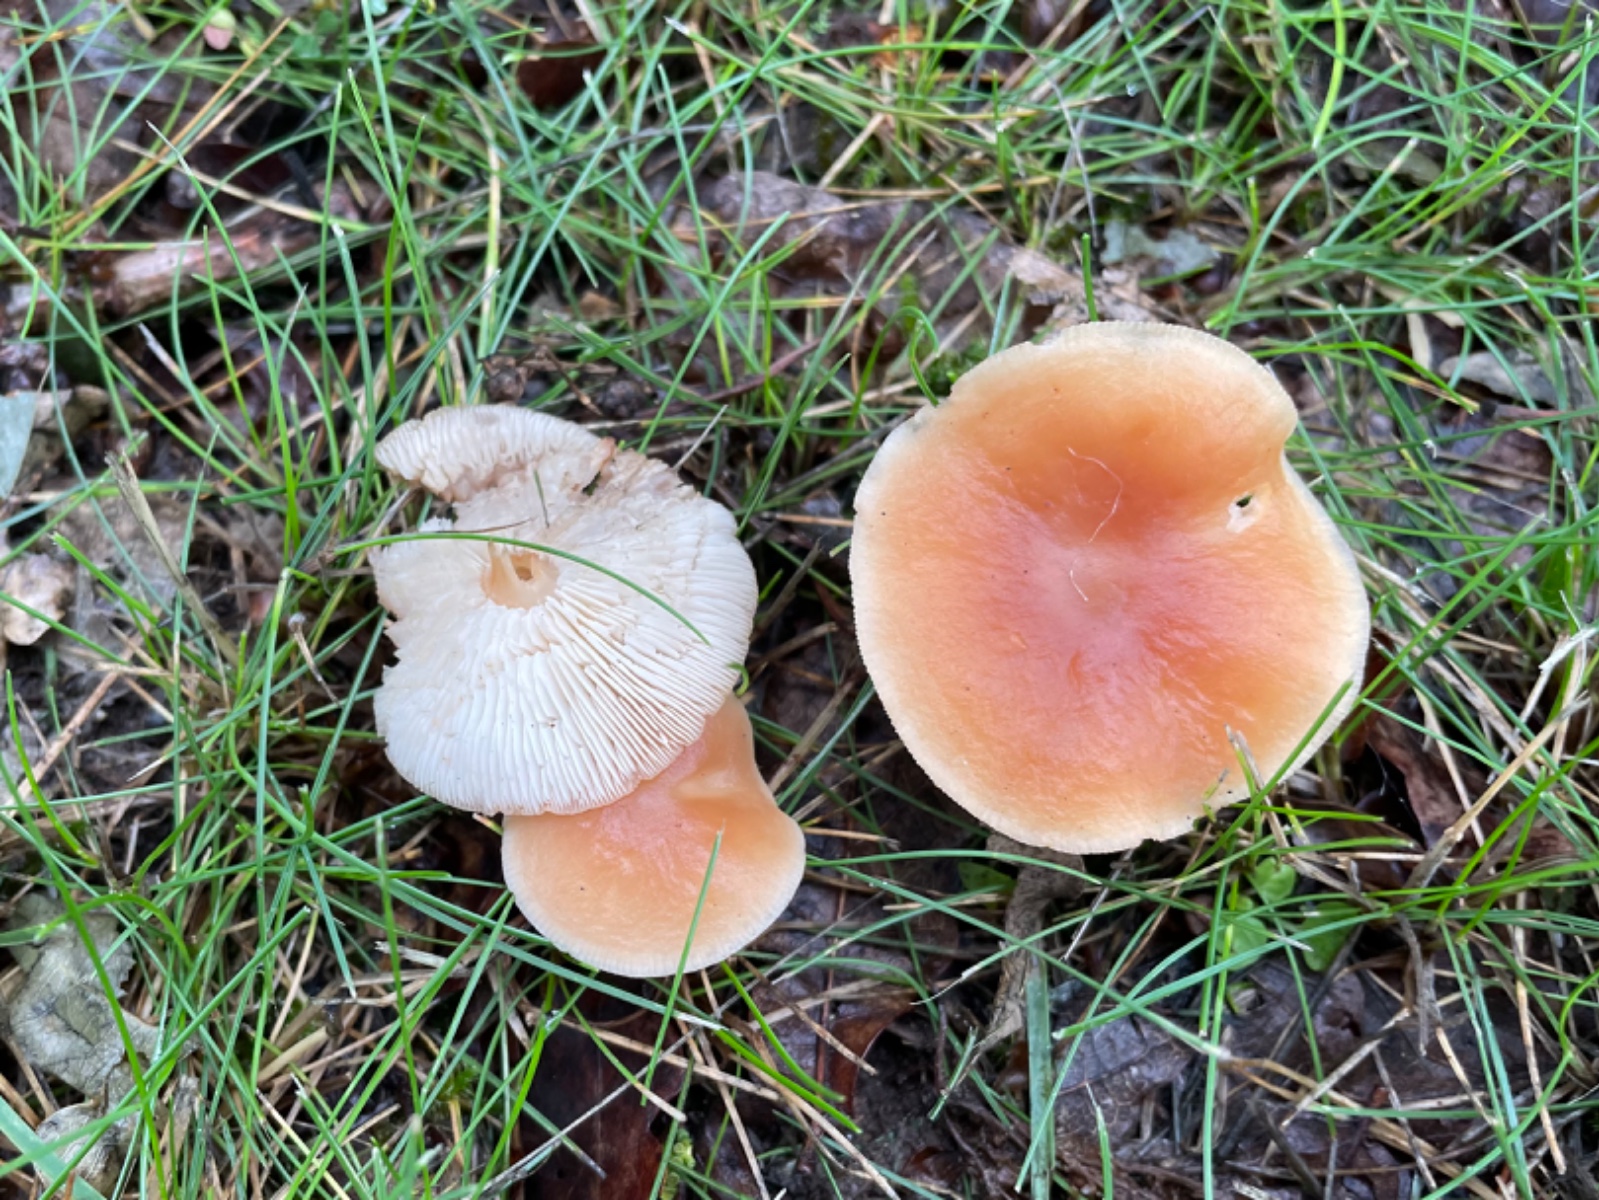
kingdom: Fungi
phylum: Basidiomycota
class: Agaricomycetes
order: Agaricales
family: Omphalotaceae
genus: Gymnopus
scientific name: Gymnopus dryophilus
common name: løv-fladhat
